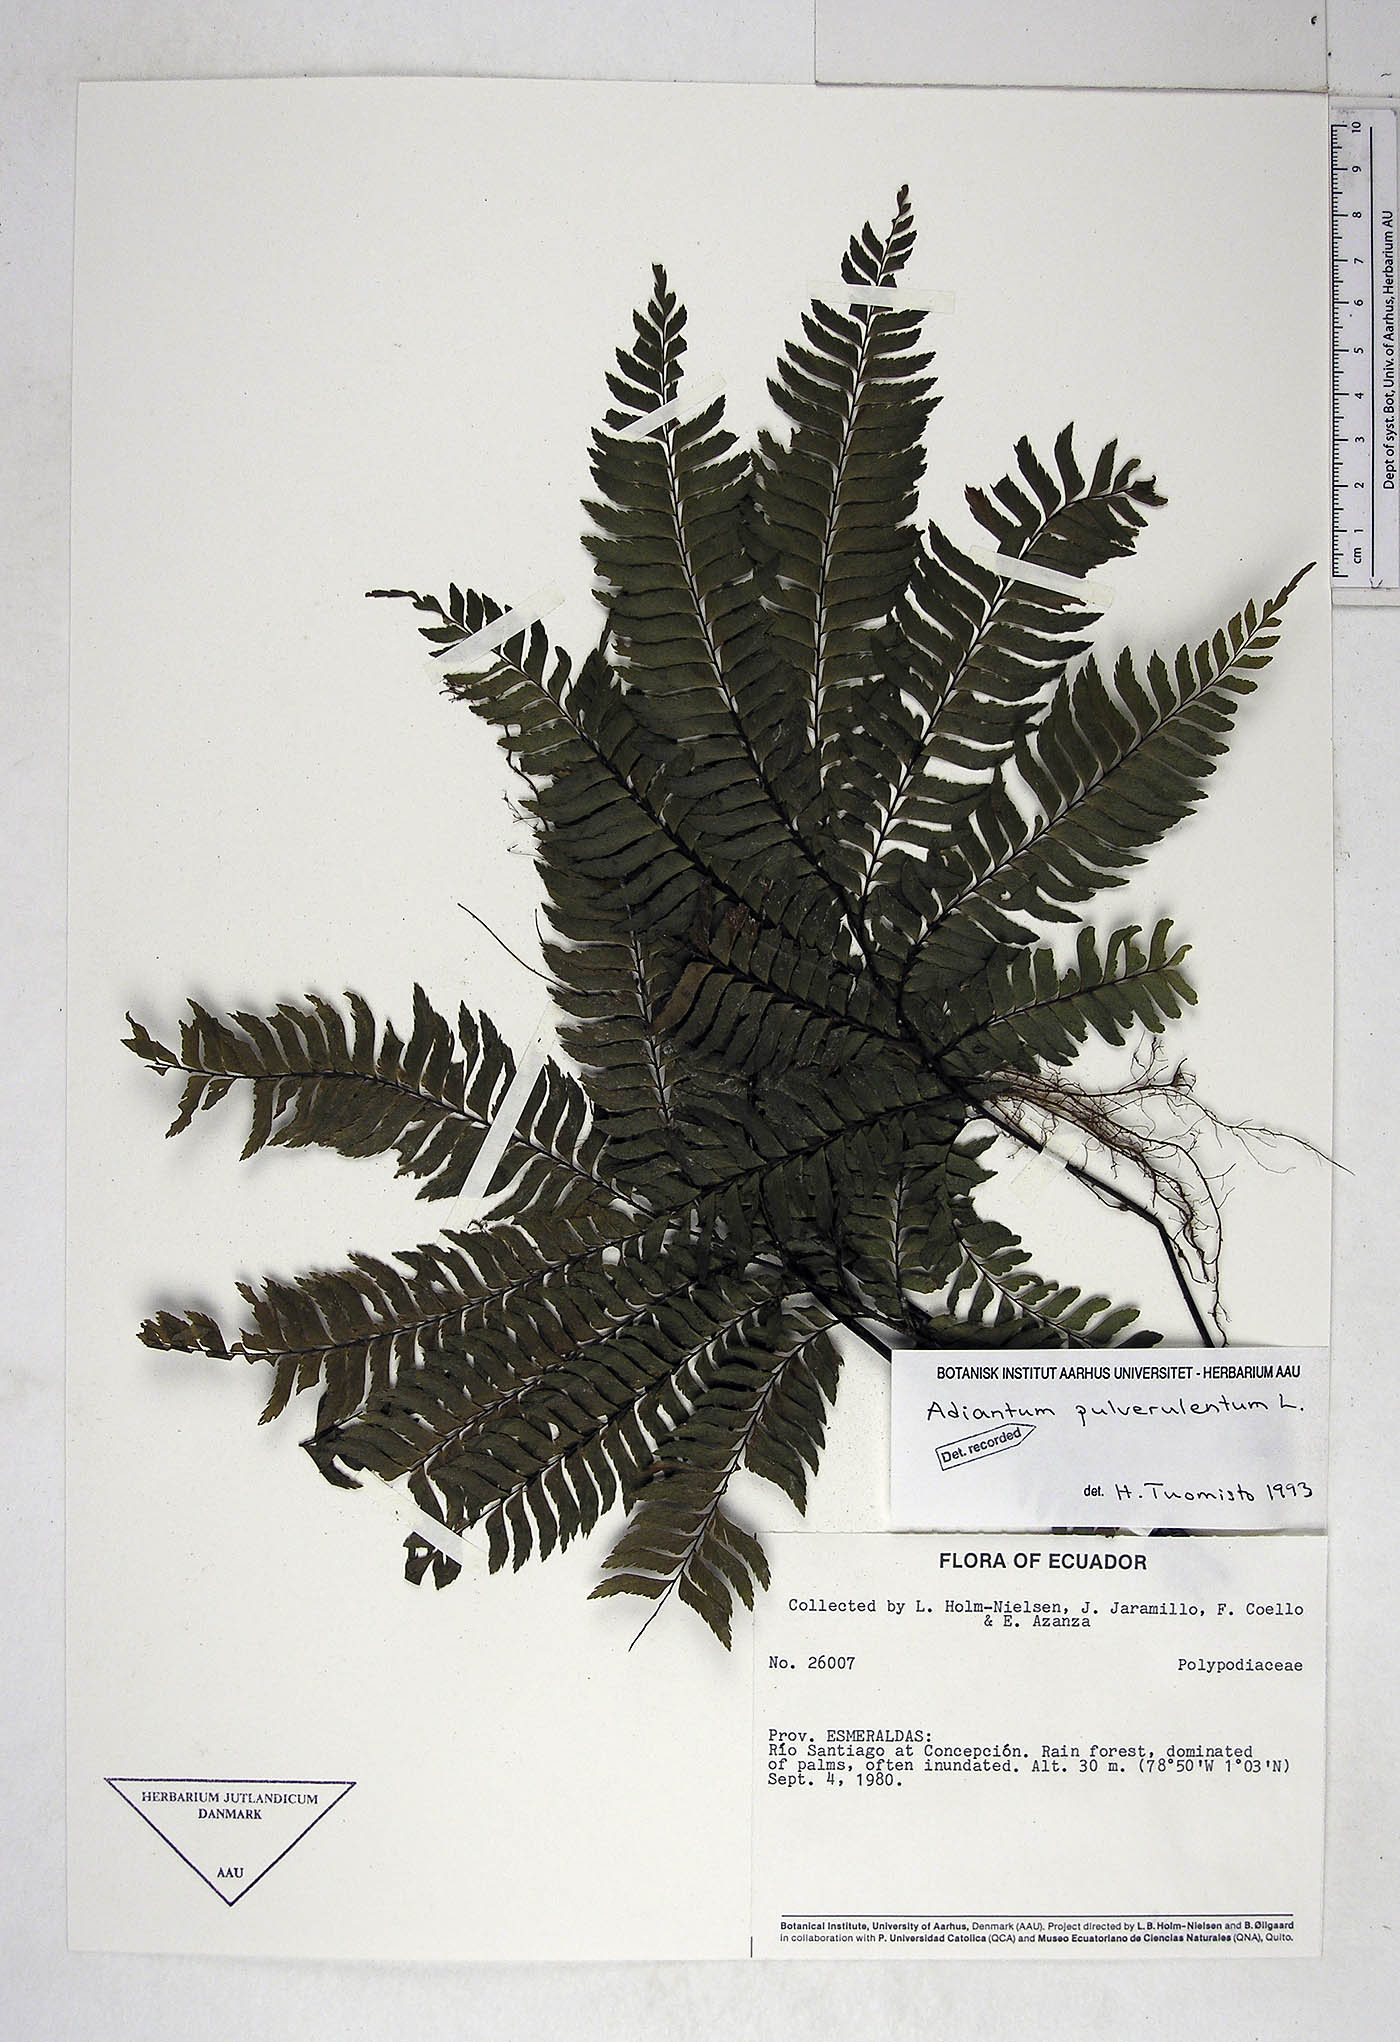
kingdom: Plantae
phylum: Tracheophyta
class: Polypodiopsida
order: Polypodiales
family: Pteridaceae
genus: Adiantum
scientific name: Adiantum pulverulentum
